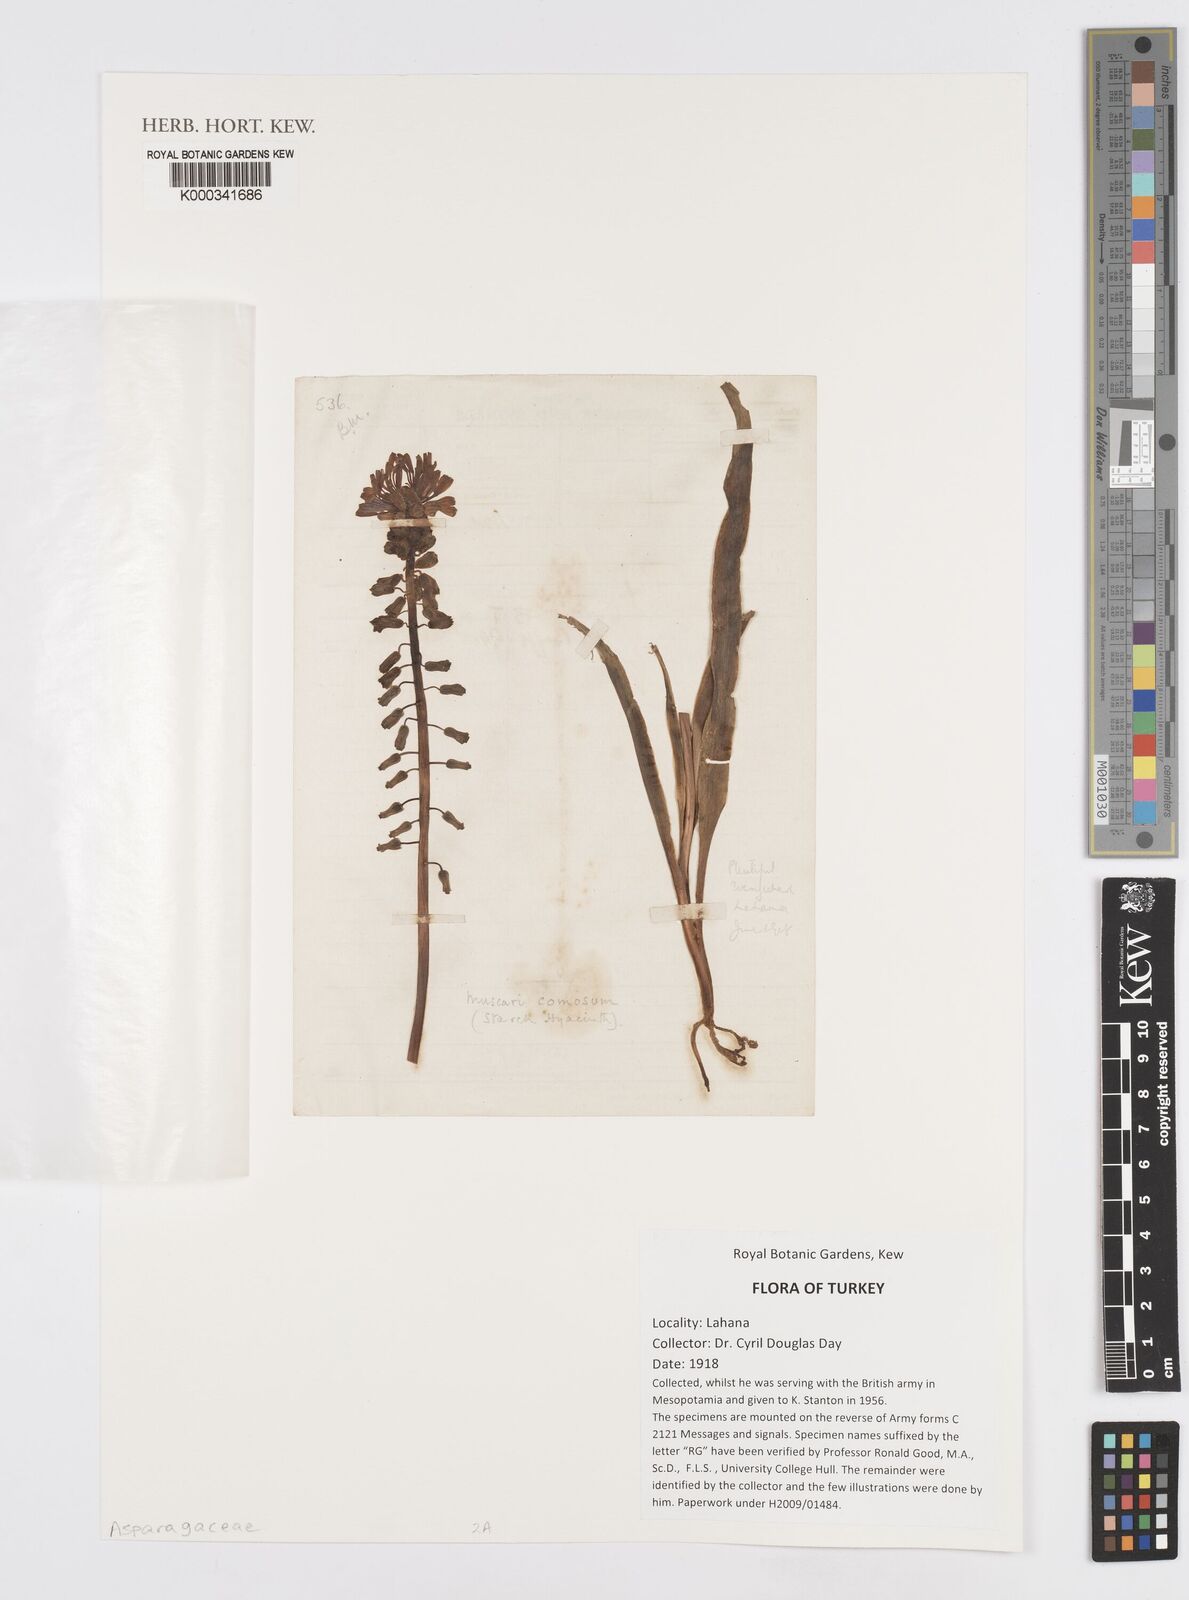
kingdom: Plantae
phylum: Tracheophyta
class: Liliopsida
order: Asparagales
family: Asparagaceae
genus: Muscari
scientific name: Muscari comosum
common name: Tassel hyacinth
